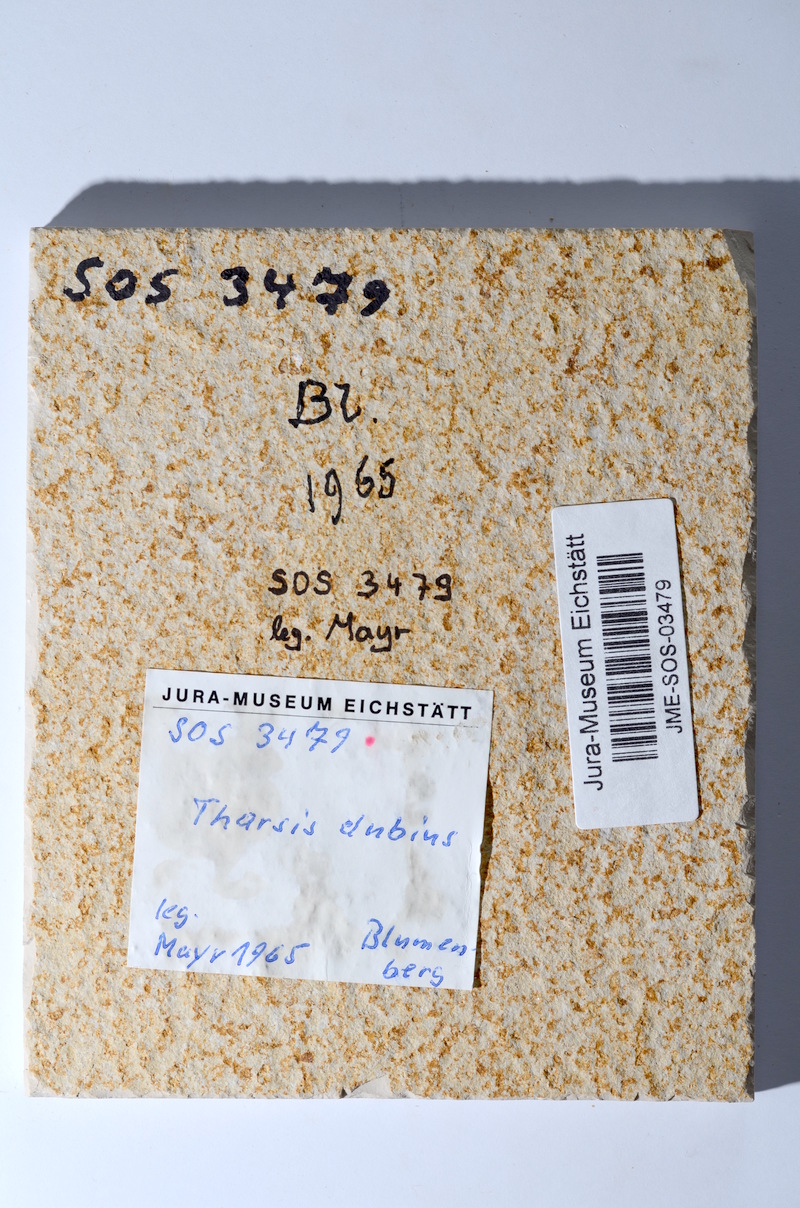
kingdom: Animalia
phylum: Chordata
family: Ascalaboidae
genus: Tharsis
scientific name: Tharsis dubius
